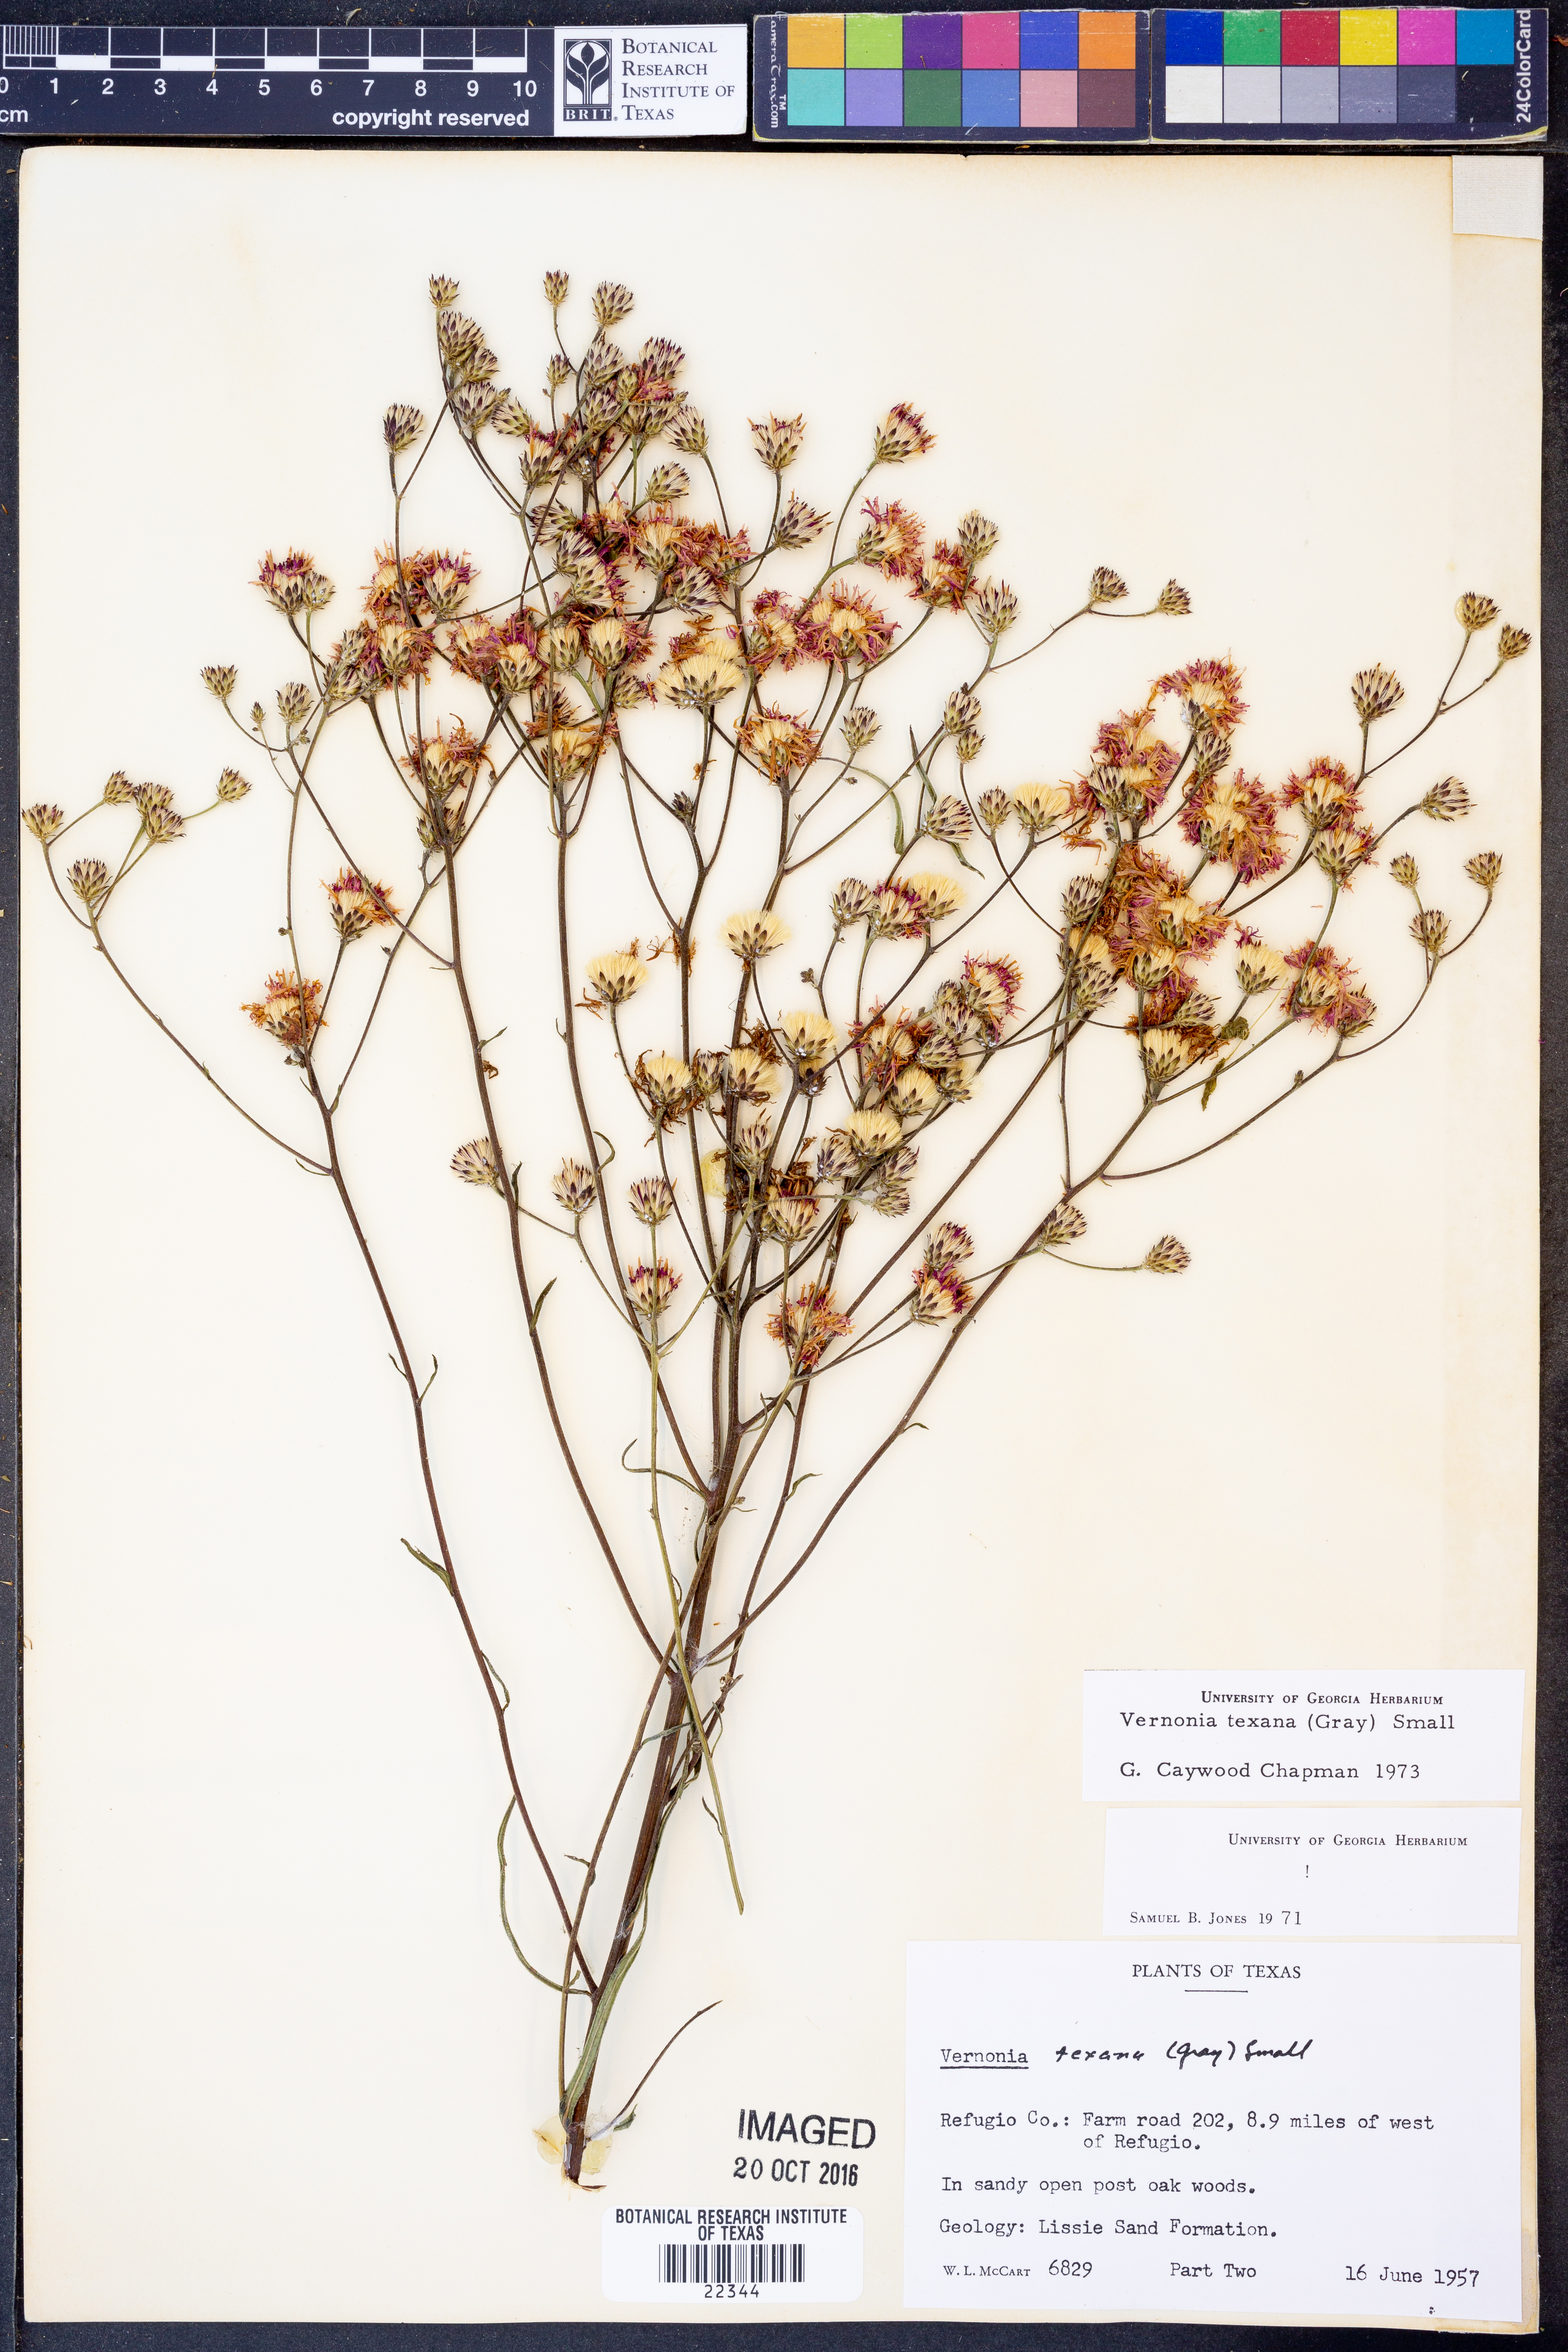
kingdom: Plantae
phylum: Tracheophyta
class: Magnoliopsida
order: Asterales
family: Asteraceae
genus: Vernonia
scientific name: Vernonia texana
